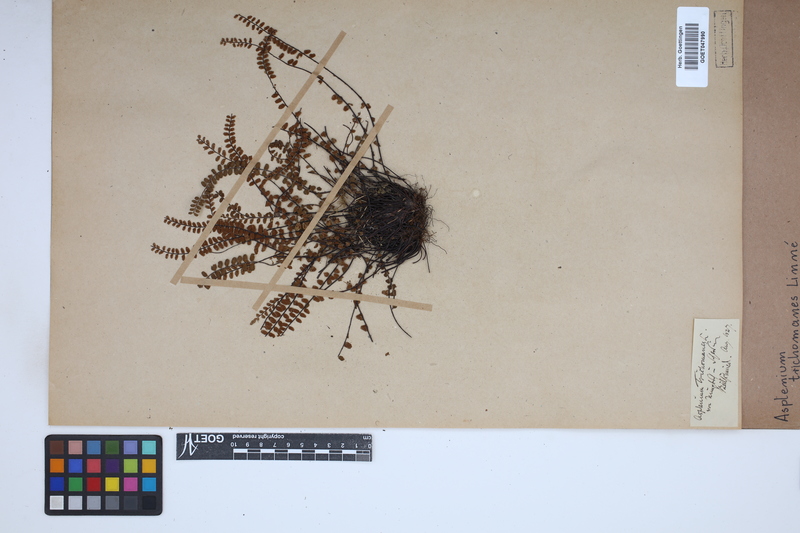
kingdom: Plantae
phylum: Tracheophyta
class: Polypodiopsida
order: Polypodiales
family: Aspleniaceae
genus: Asplenium
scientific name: Asplenium trichomanes
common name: Maidenhair spleenwort
